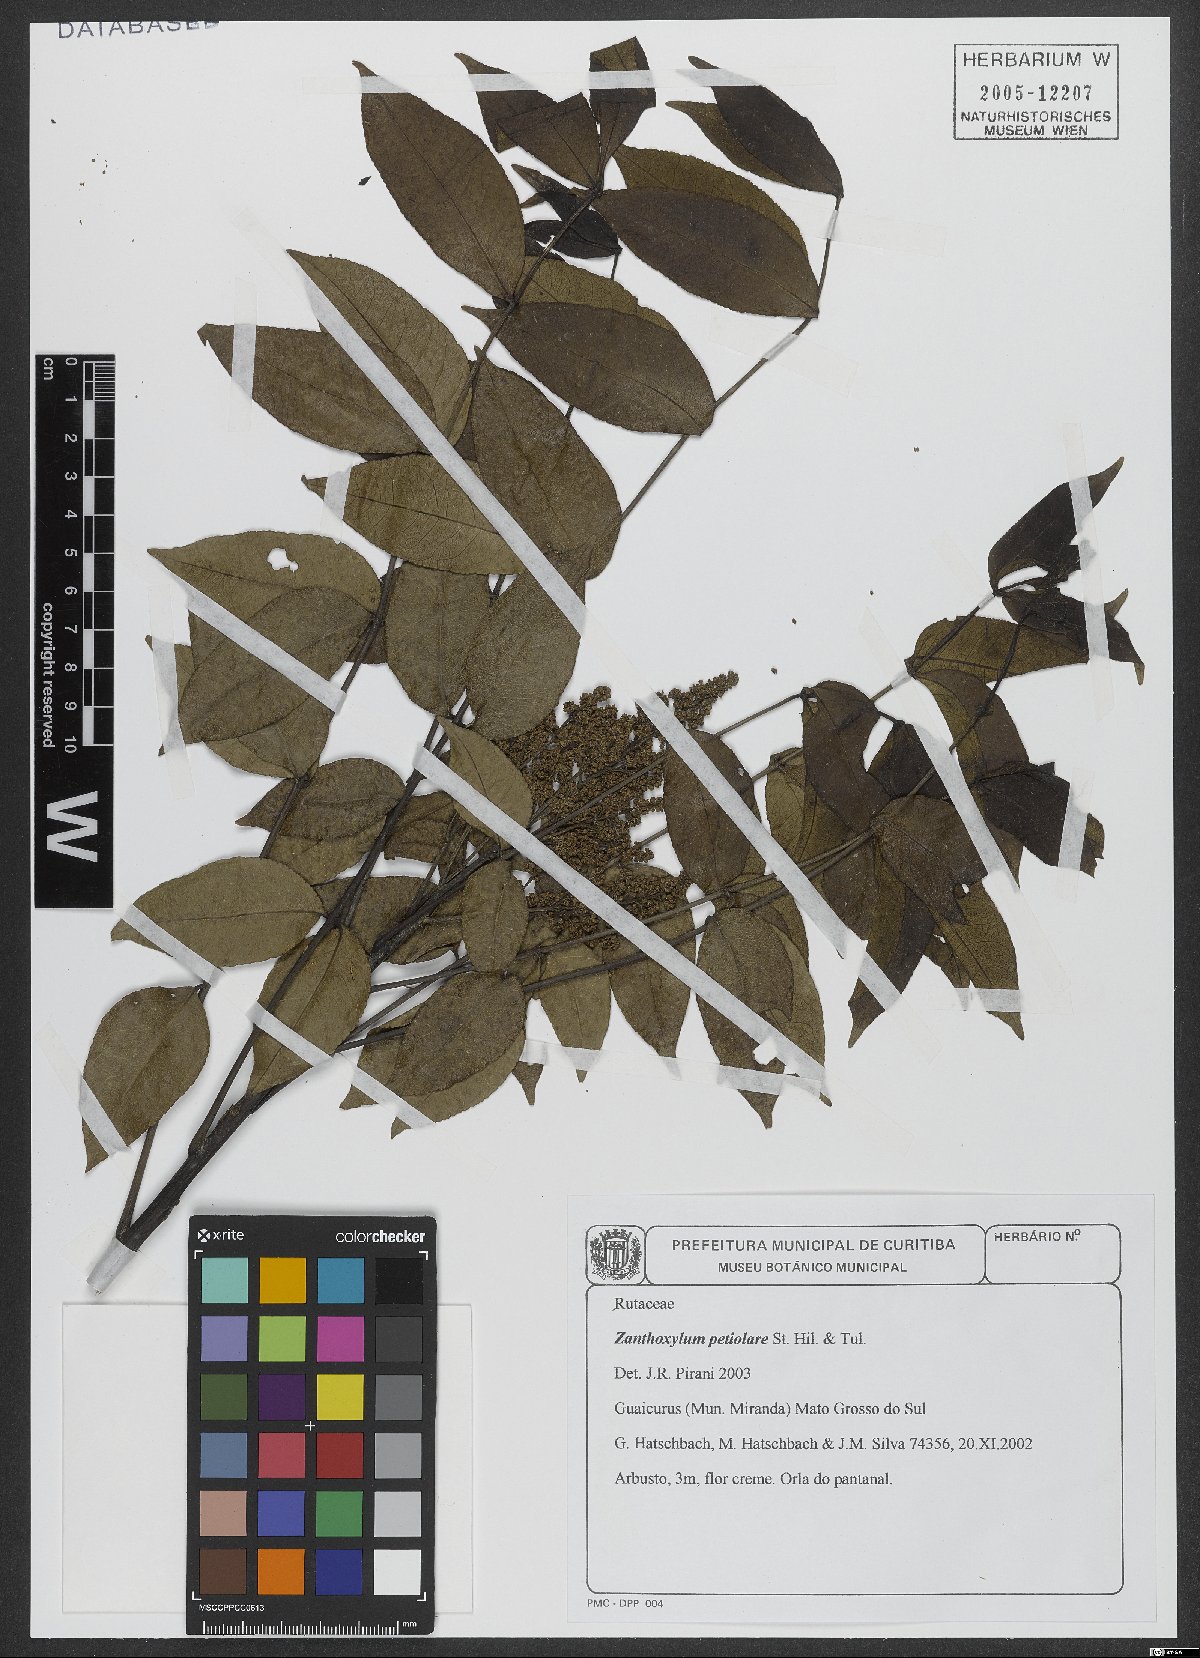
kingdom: Plantae
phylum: Tracheophyta
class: Magnoliopsida
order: Sapindales
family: Rutaceae
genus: Zanthoxylum
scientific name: Zanthoxylum petiolare
